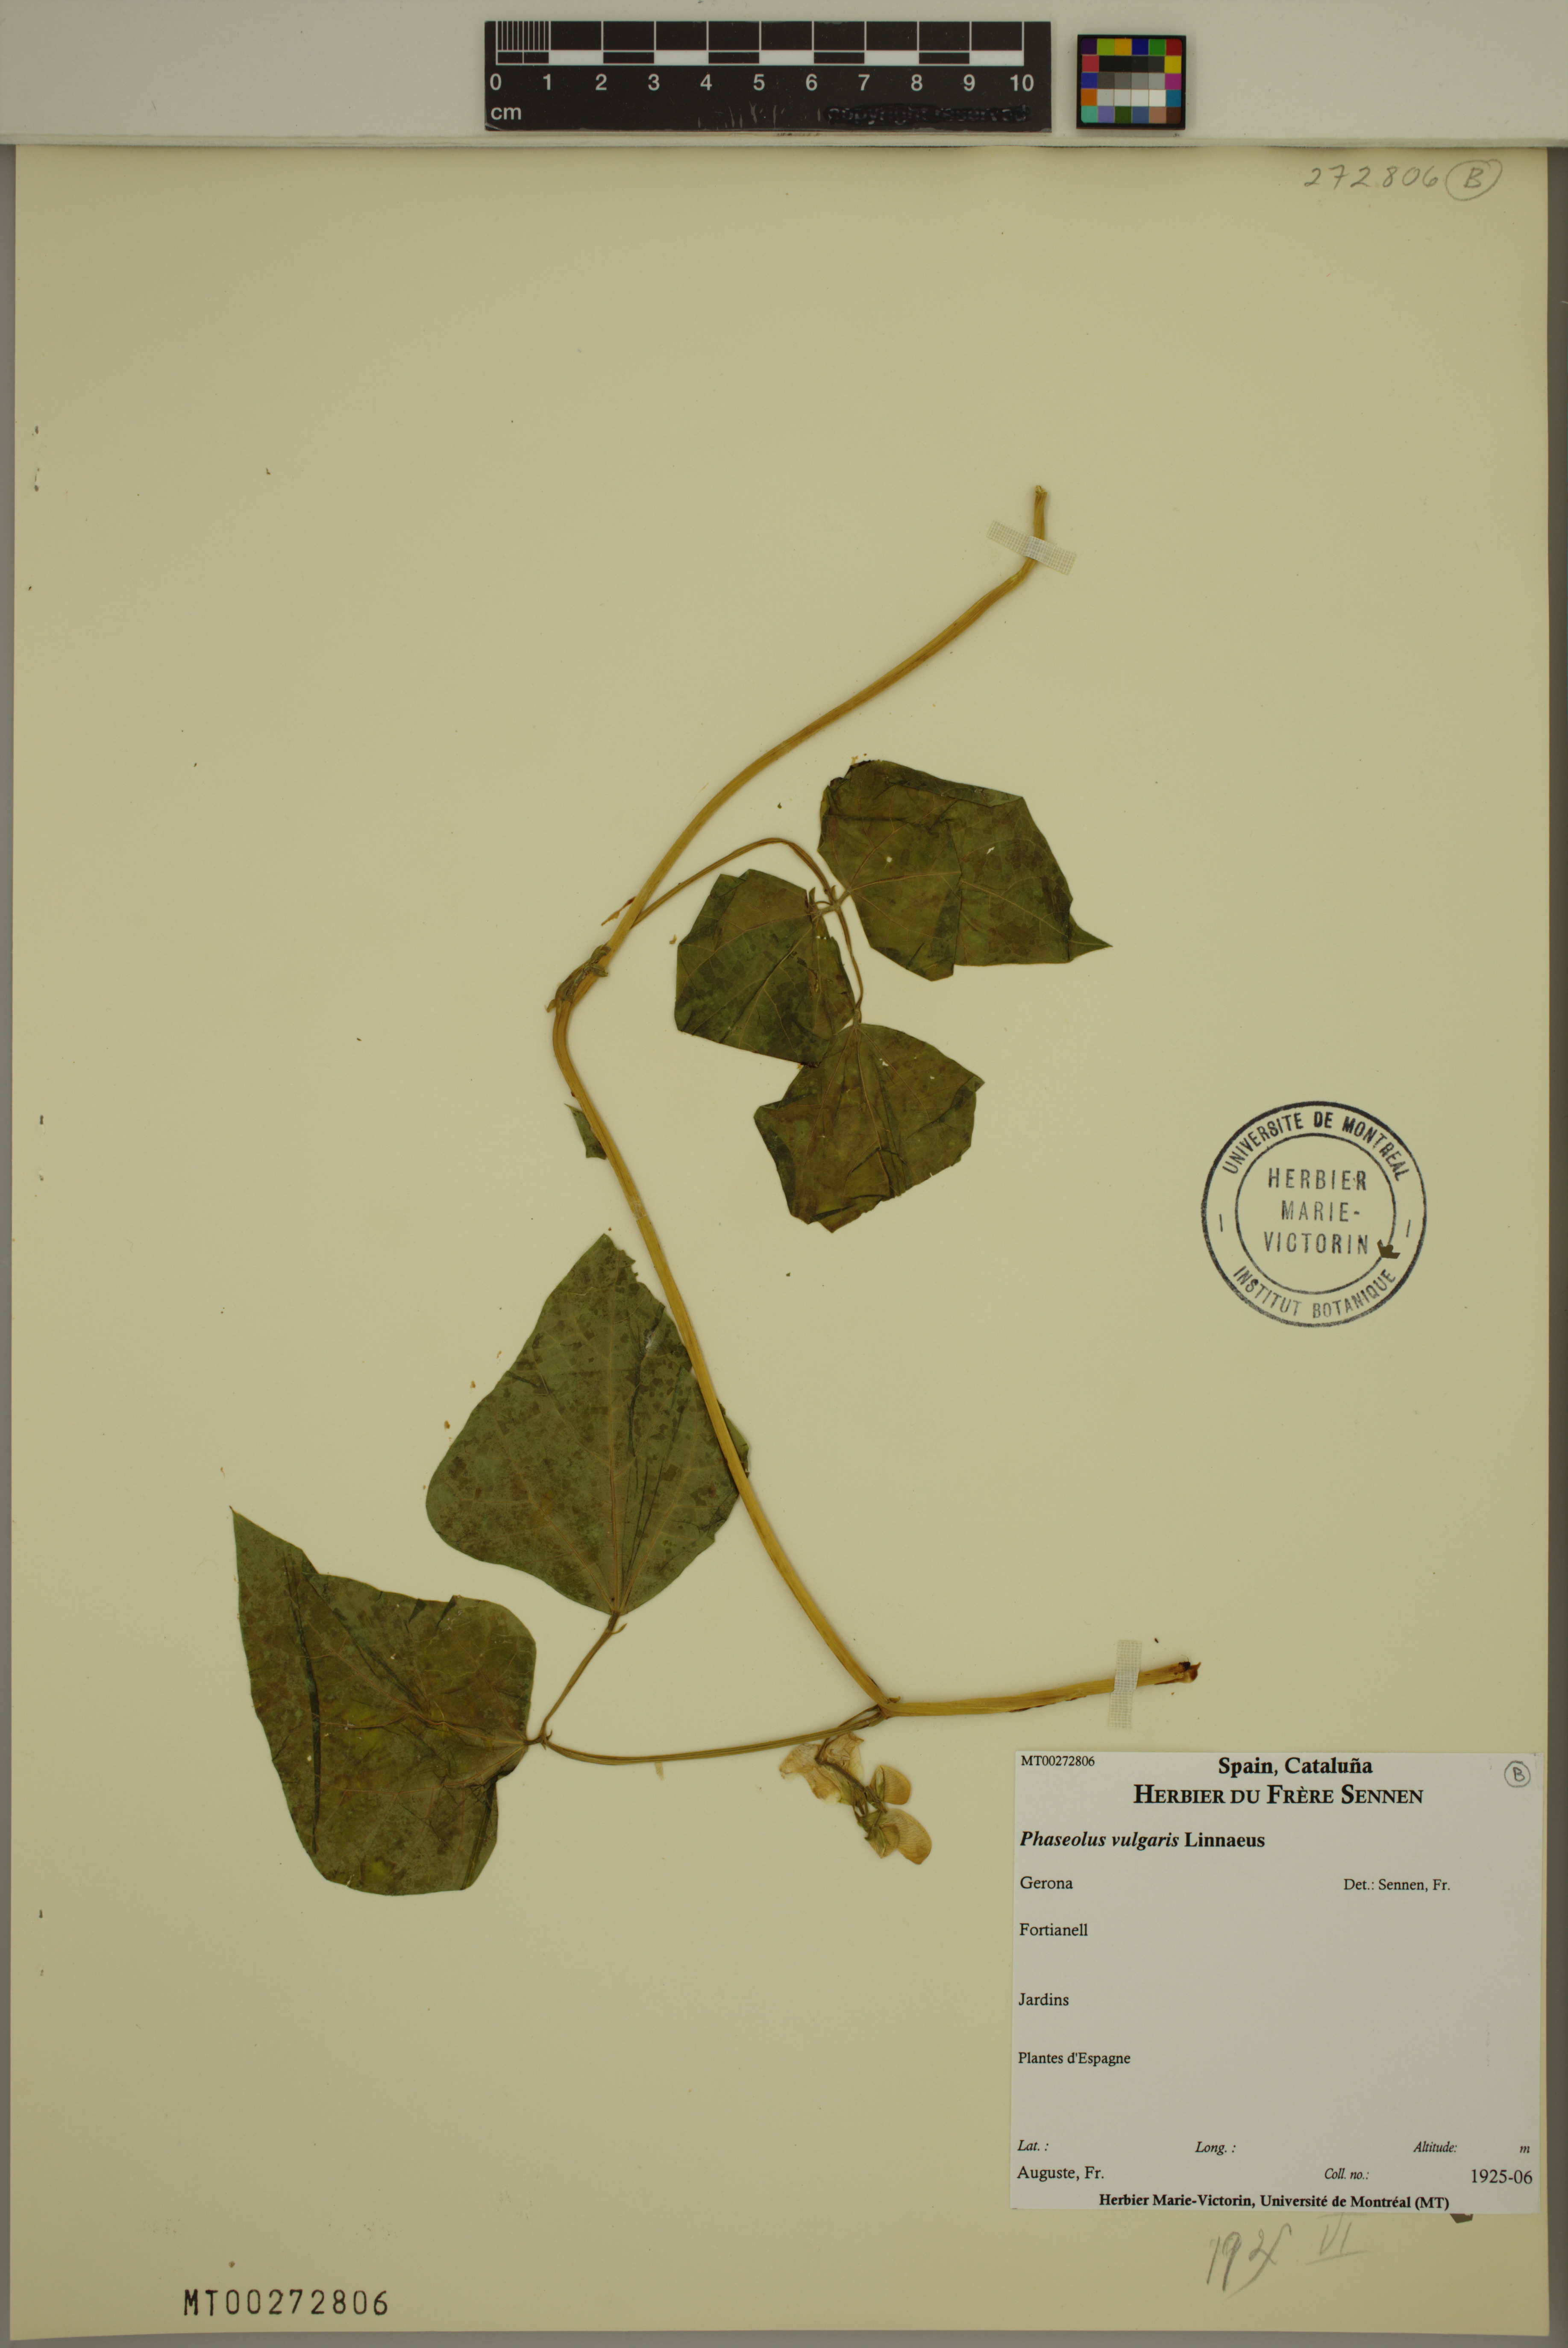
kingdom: Plantae
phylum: Tracheophyta
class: Magnoliopsida
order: Fabales
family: Fabaceae
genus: Phaseolus
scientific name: Phaseolus vulgaris
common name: Bean
